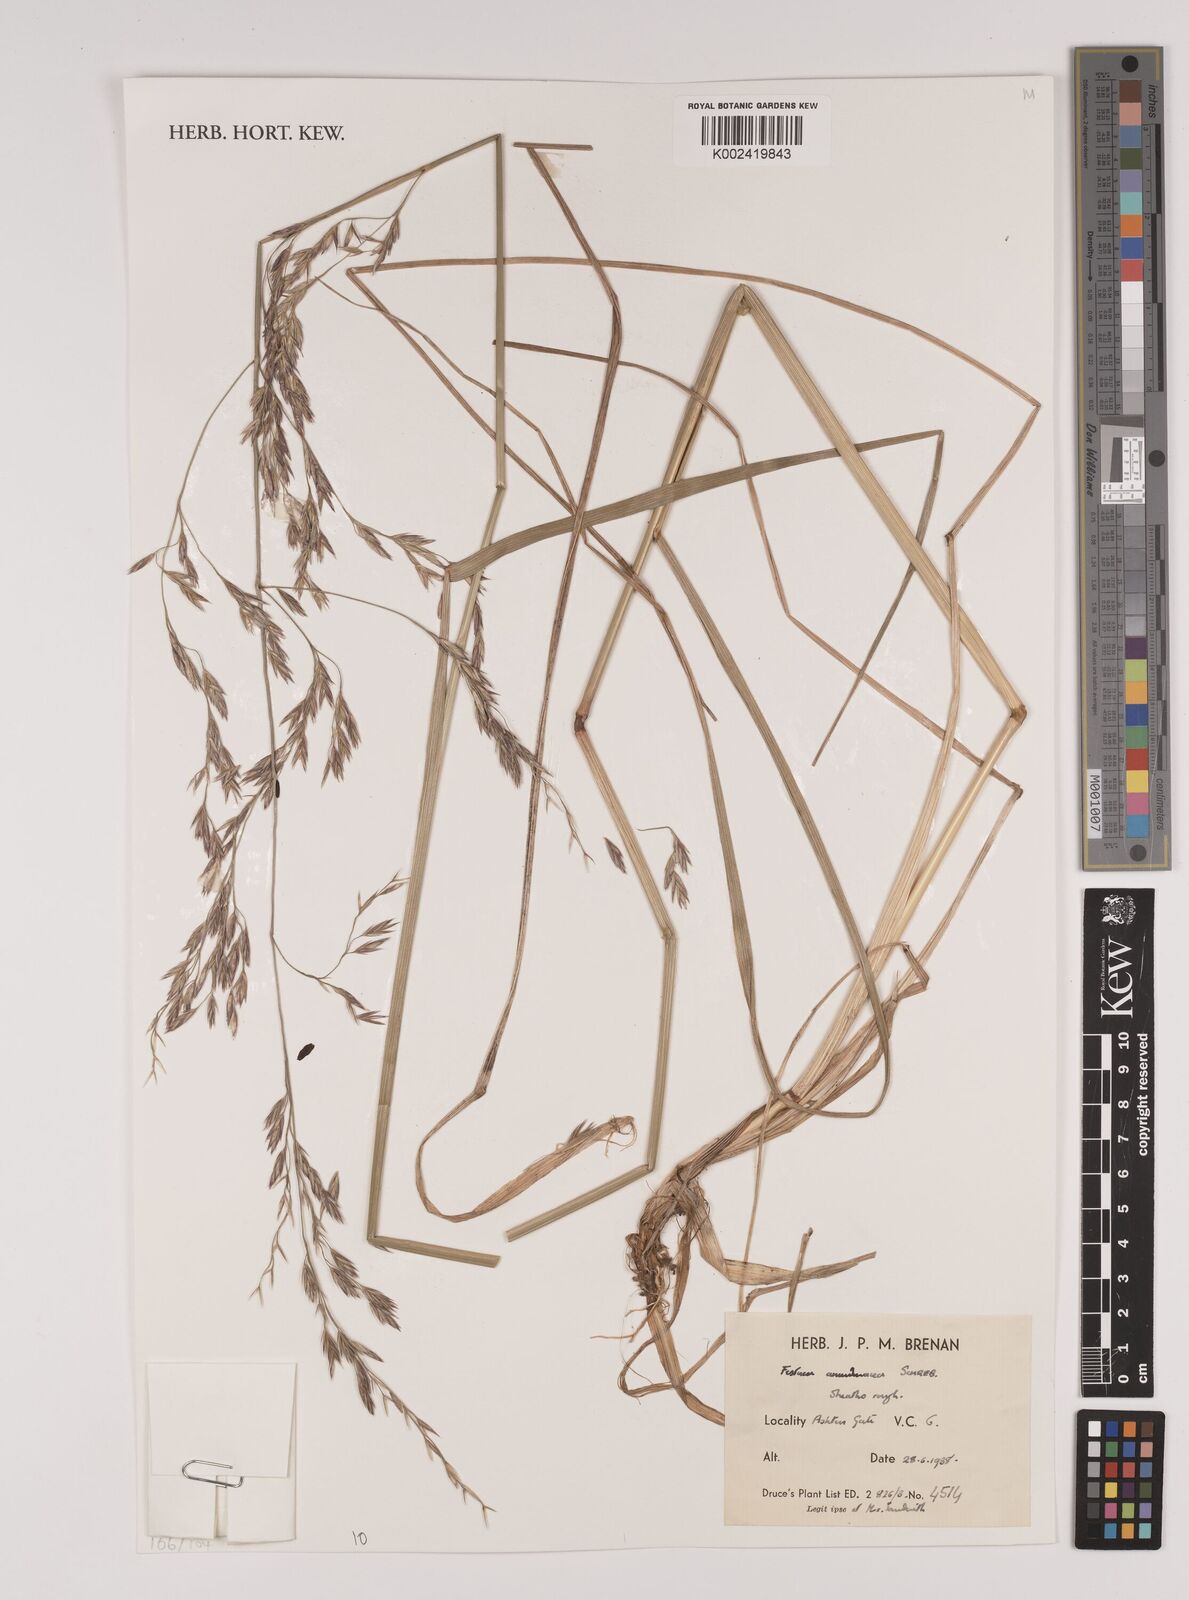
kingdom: Plantae
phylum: Tracheophyta
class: Liliopsida
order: Poales
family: Poaceae
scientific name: Poaceae
